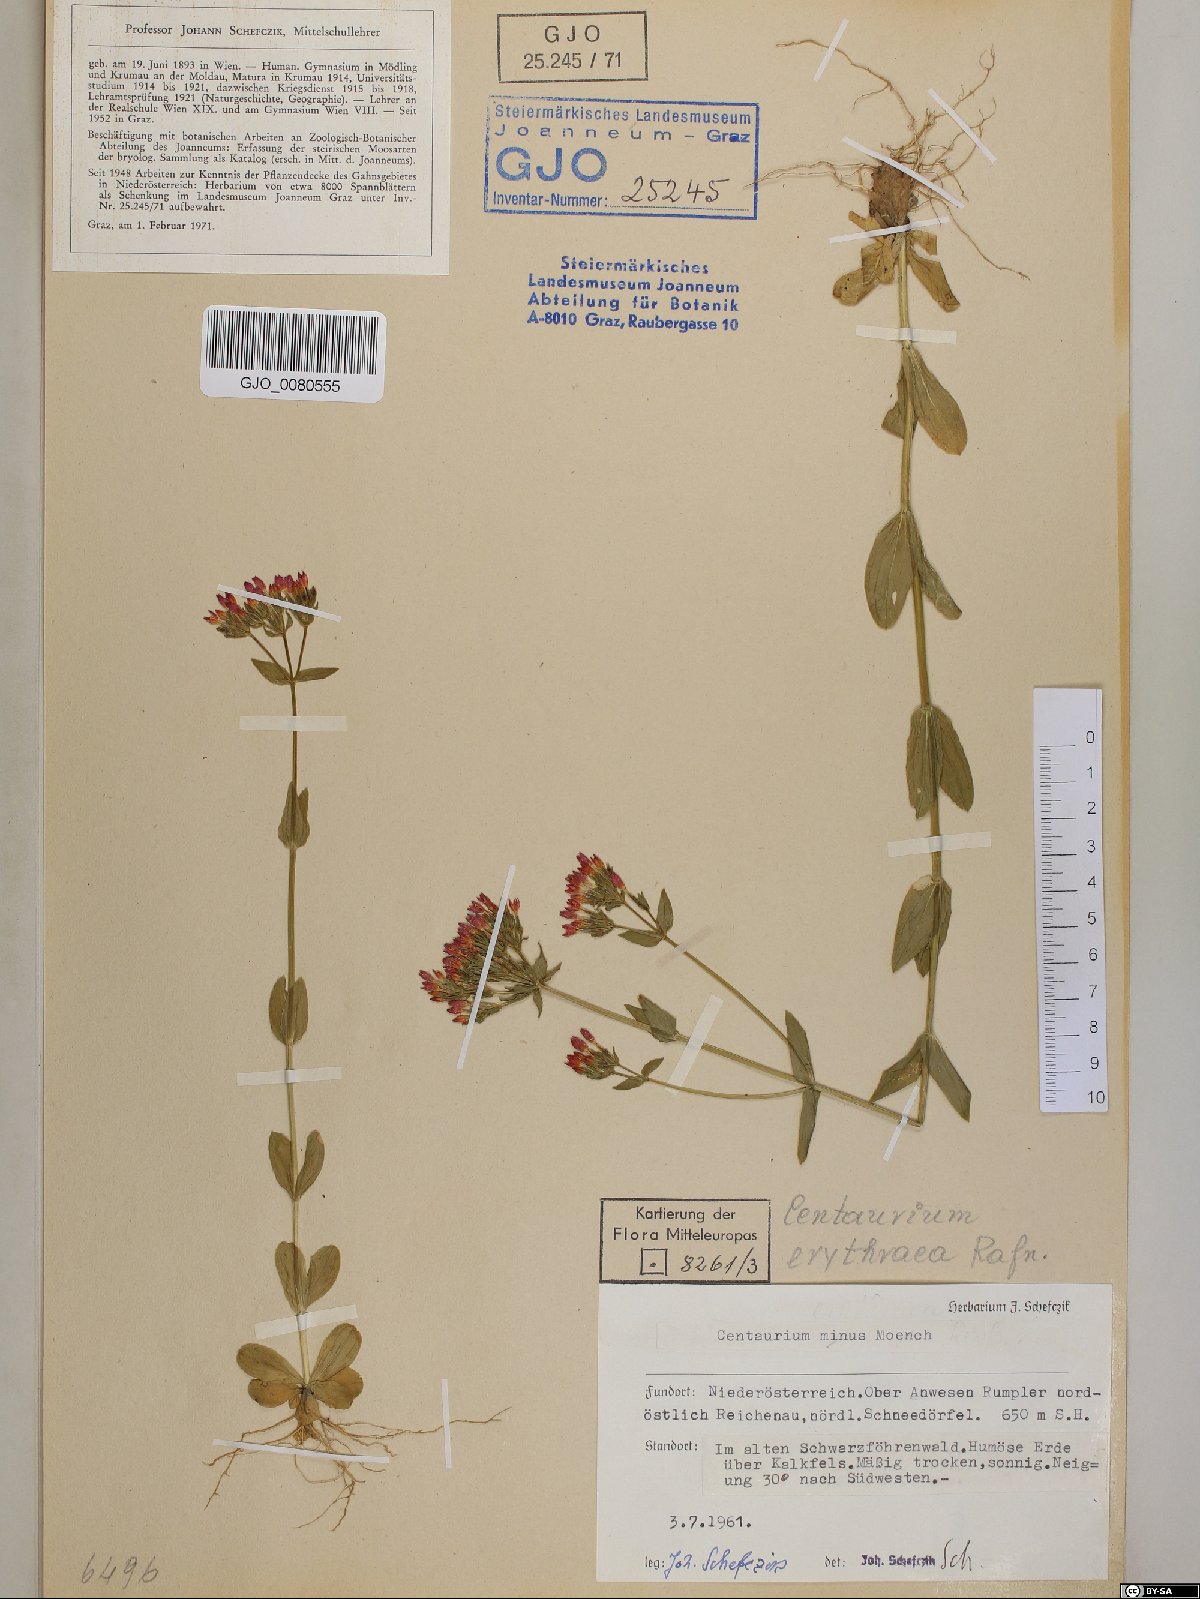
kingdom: Plantae
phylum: Tracheophyta
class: Magnoliopsida
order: Gentianales
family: Gentianaceae
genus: Centaurium
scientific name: Centaurium erythraea
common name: Common centaury
